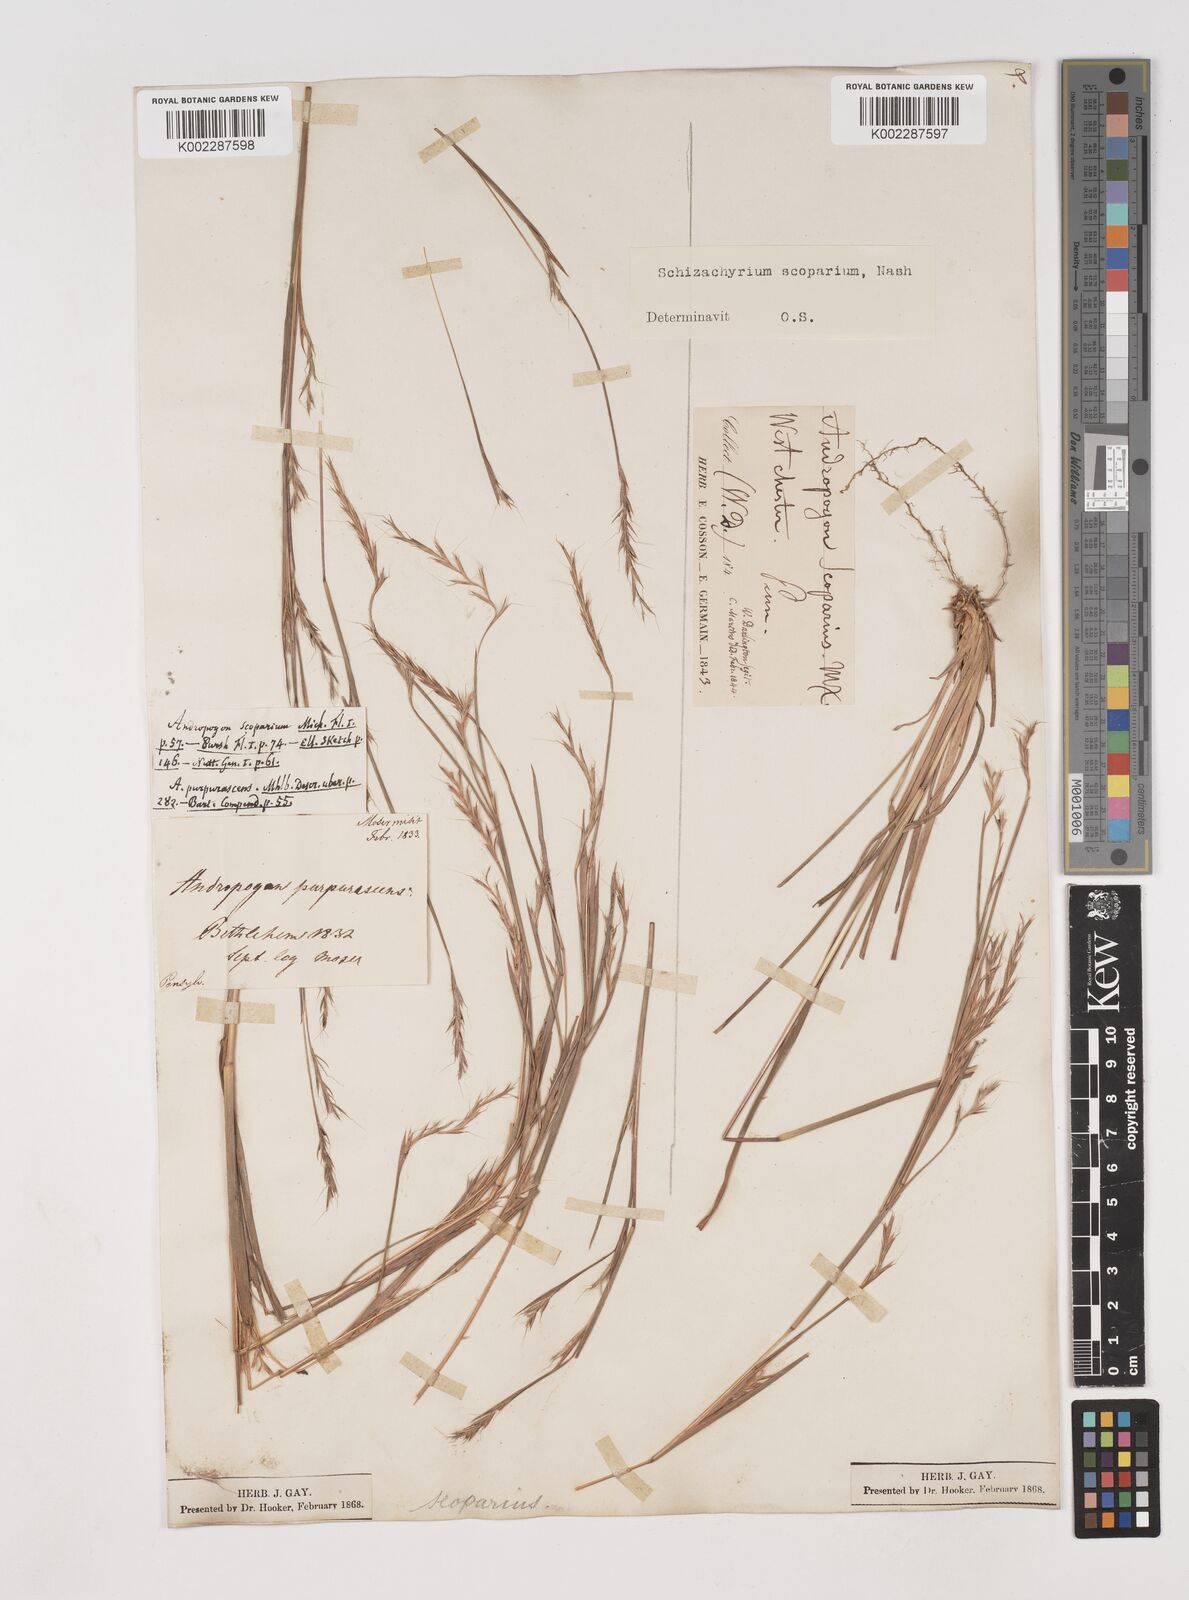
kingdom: Plantae
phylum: Tracheophyta
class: Liliopsida
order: Poales
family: Poaceae
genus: Schizachyrium
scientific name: Schizachyrium scoparium
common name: Little bluestem
